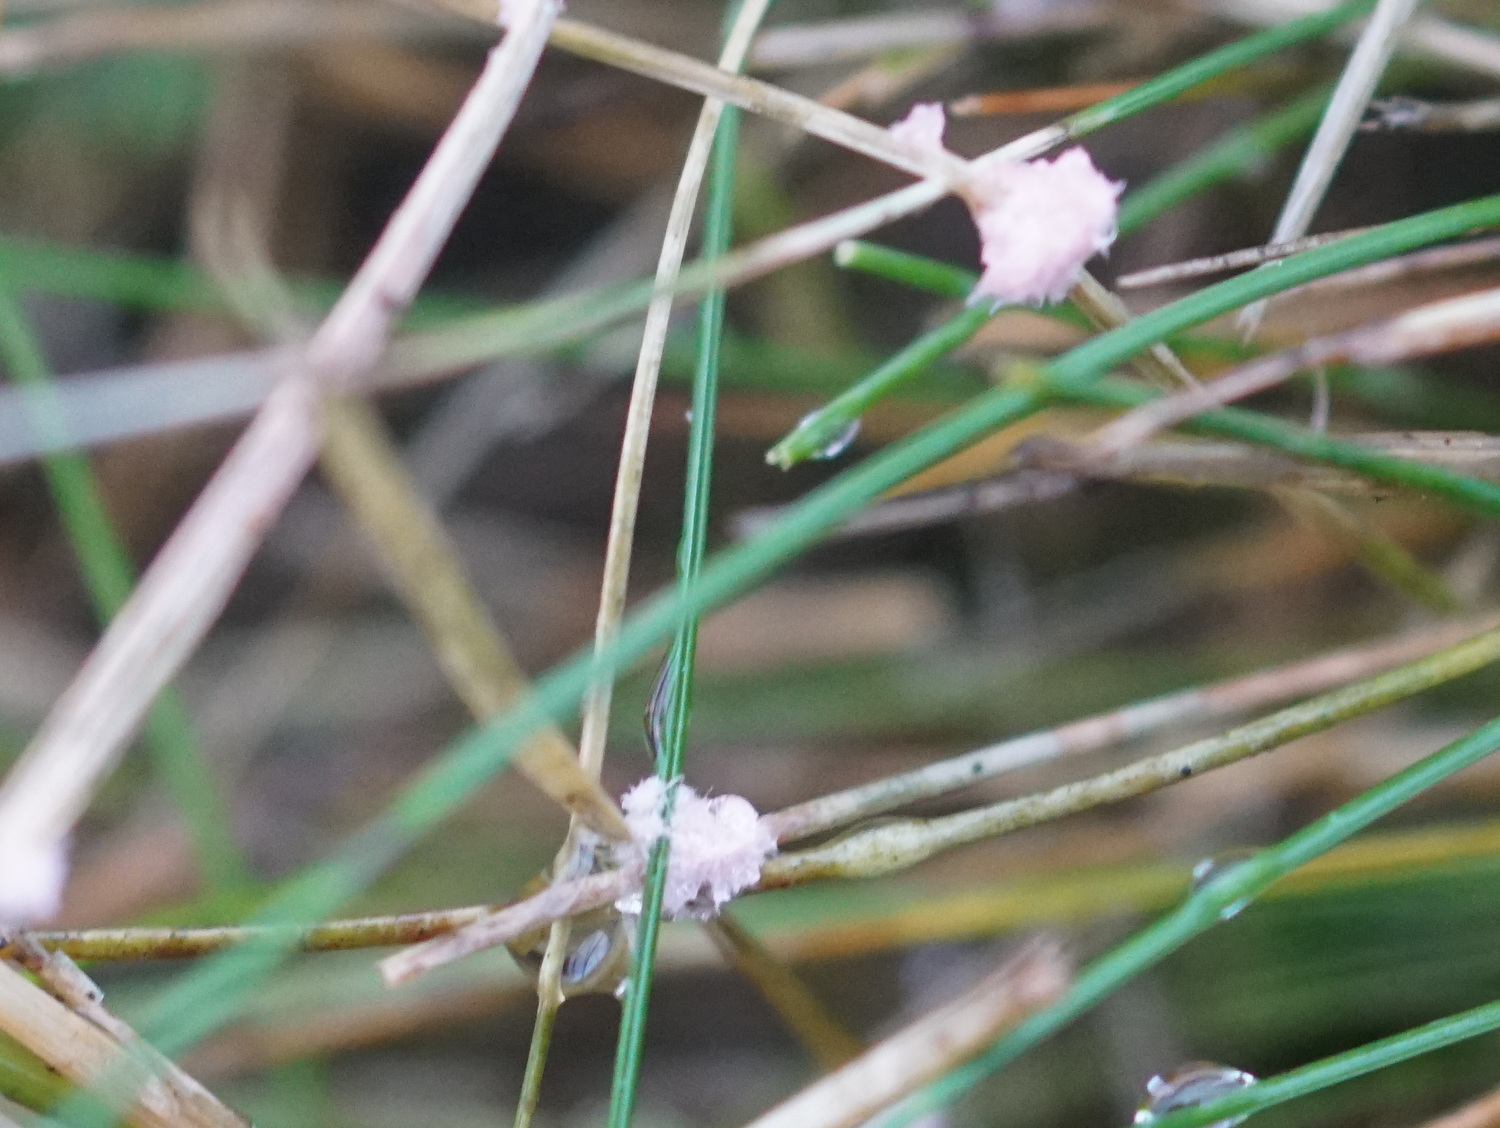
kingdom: Fungi
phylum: Basidiomycota
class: Agaricomycetes
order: Corticiales
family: Corticiaceae
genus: Laetisaria
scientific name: Laetisaria
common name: rødtråd
